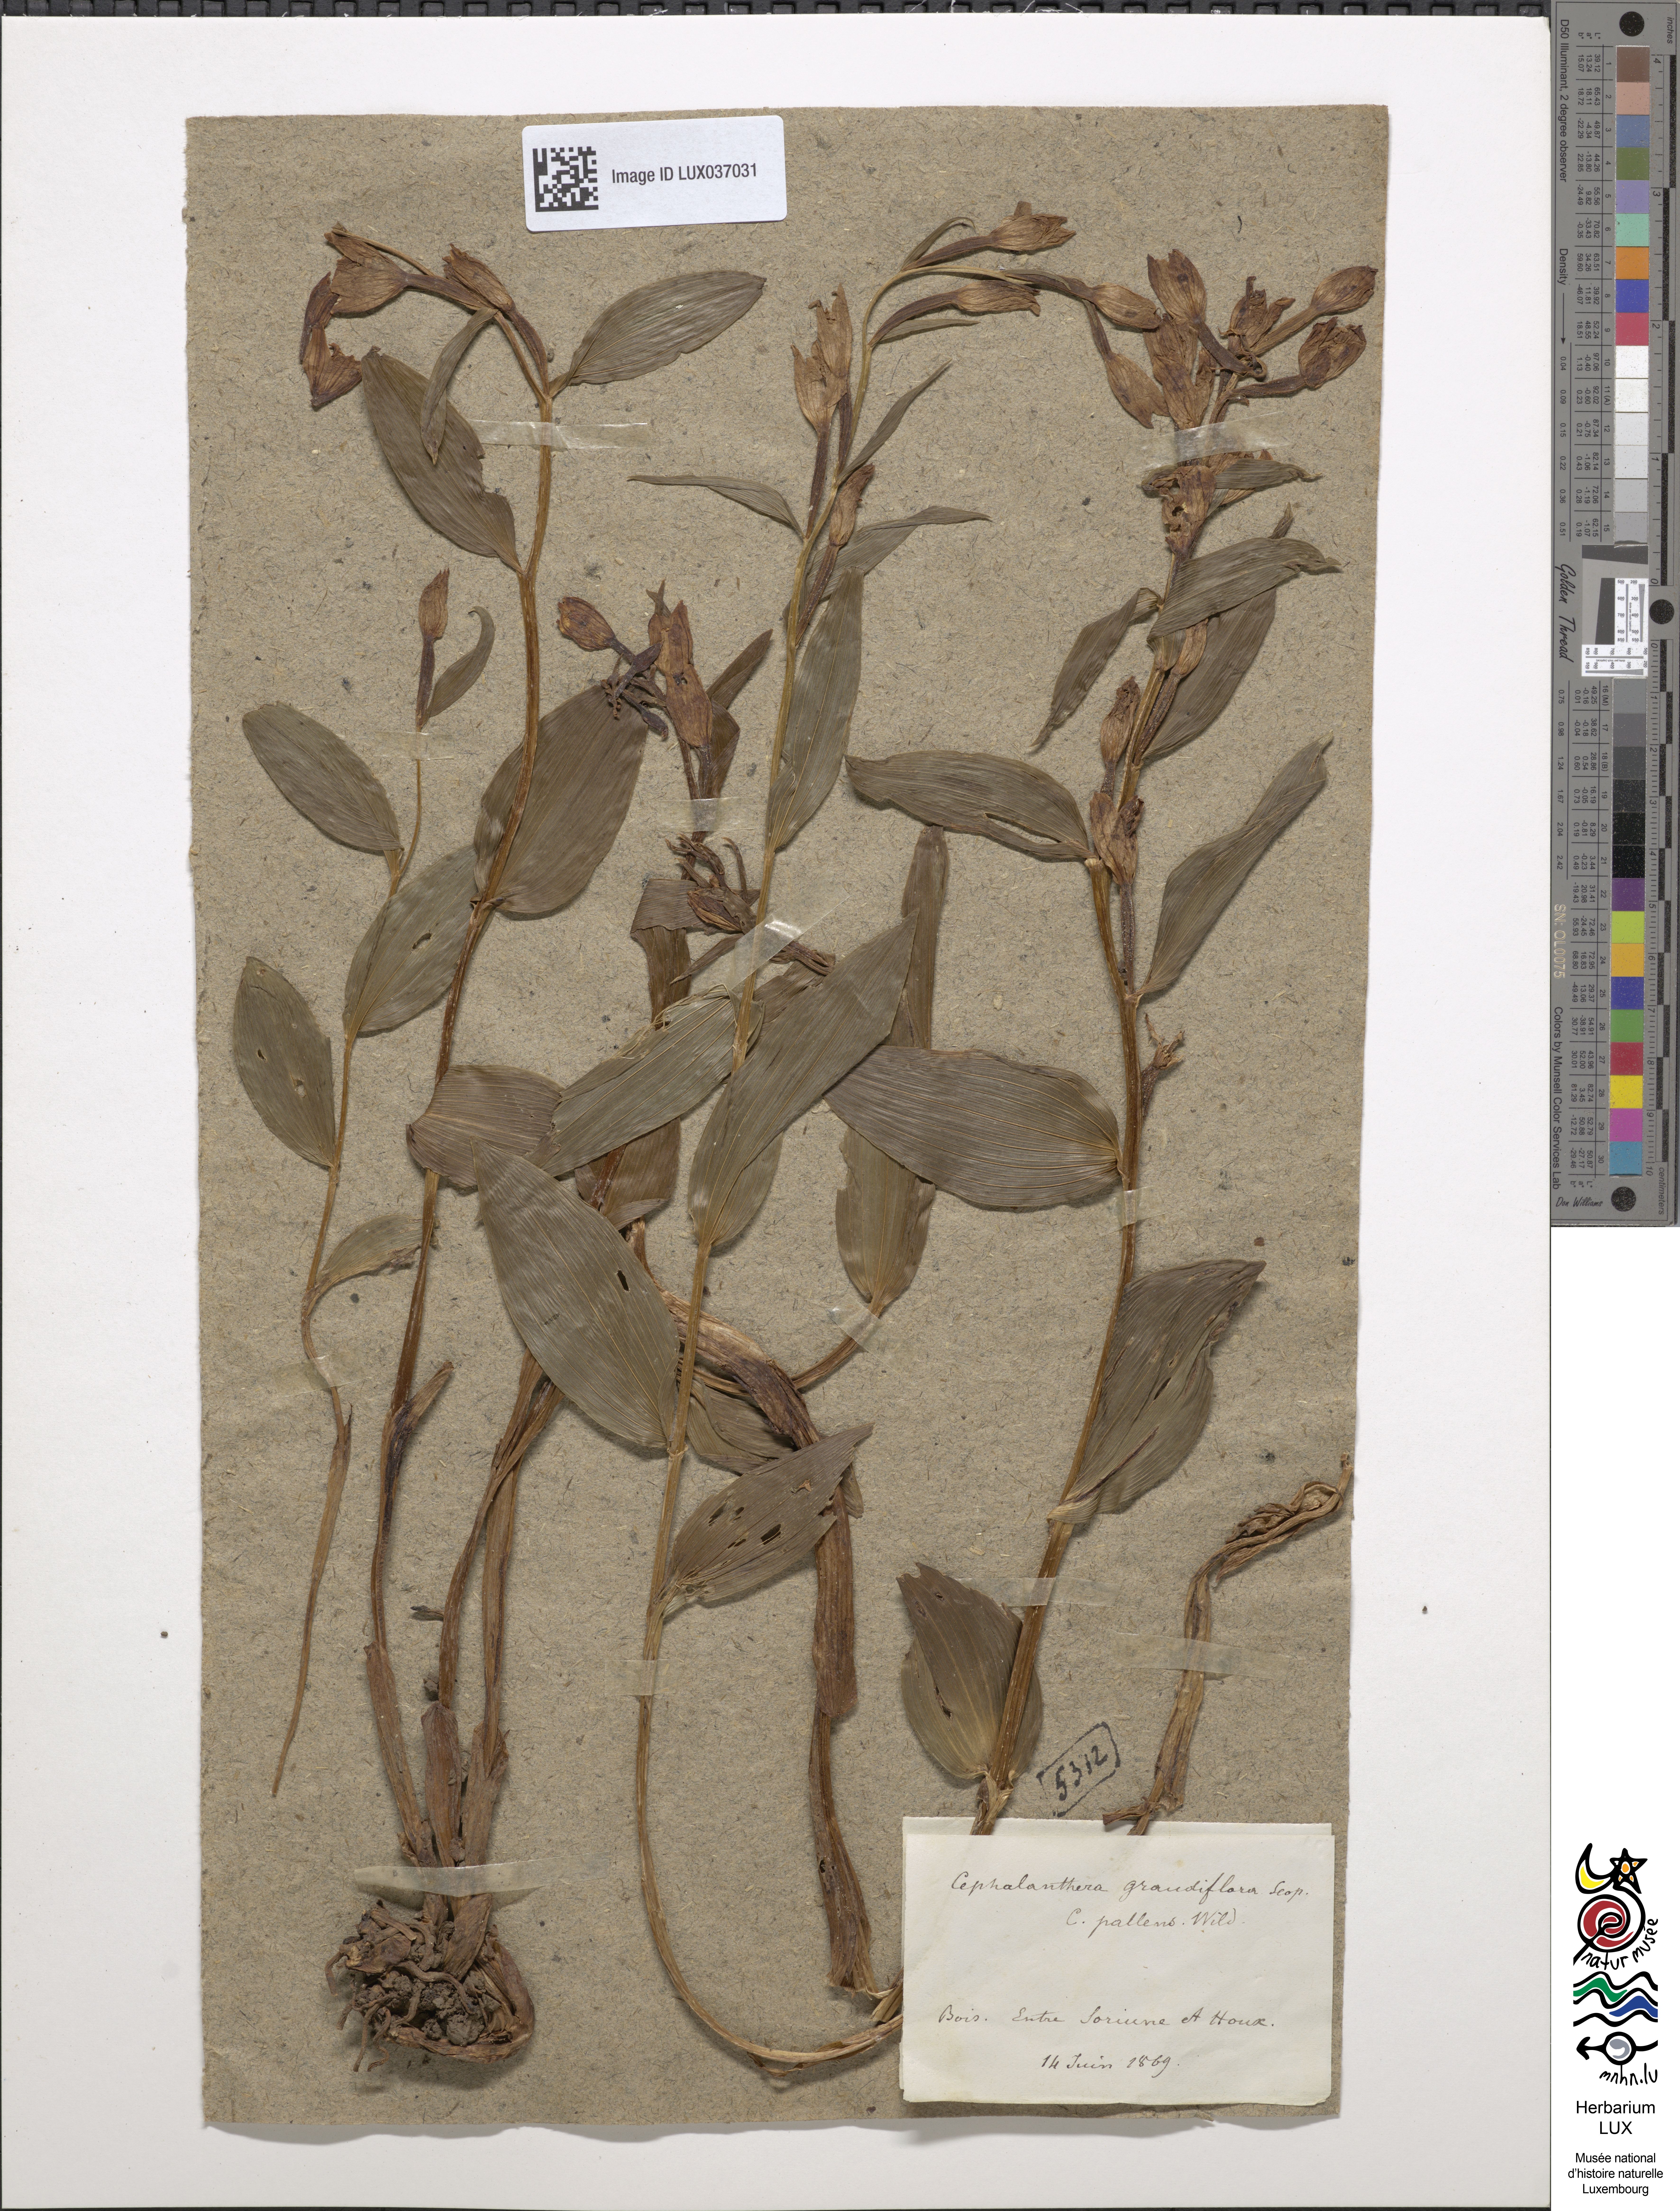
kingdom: Plantae
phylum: Tracheophyta
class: Liliopsida
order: Asparagales
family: Orchidaceae
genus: Cephalanthera
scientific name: Cephalanthera damasonium
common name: White helleborine
